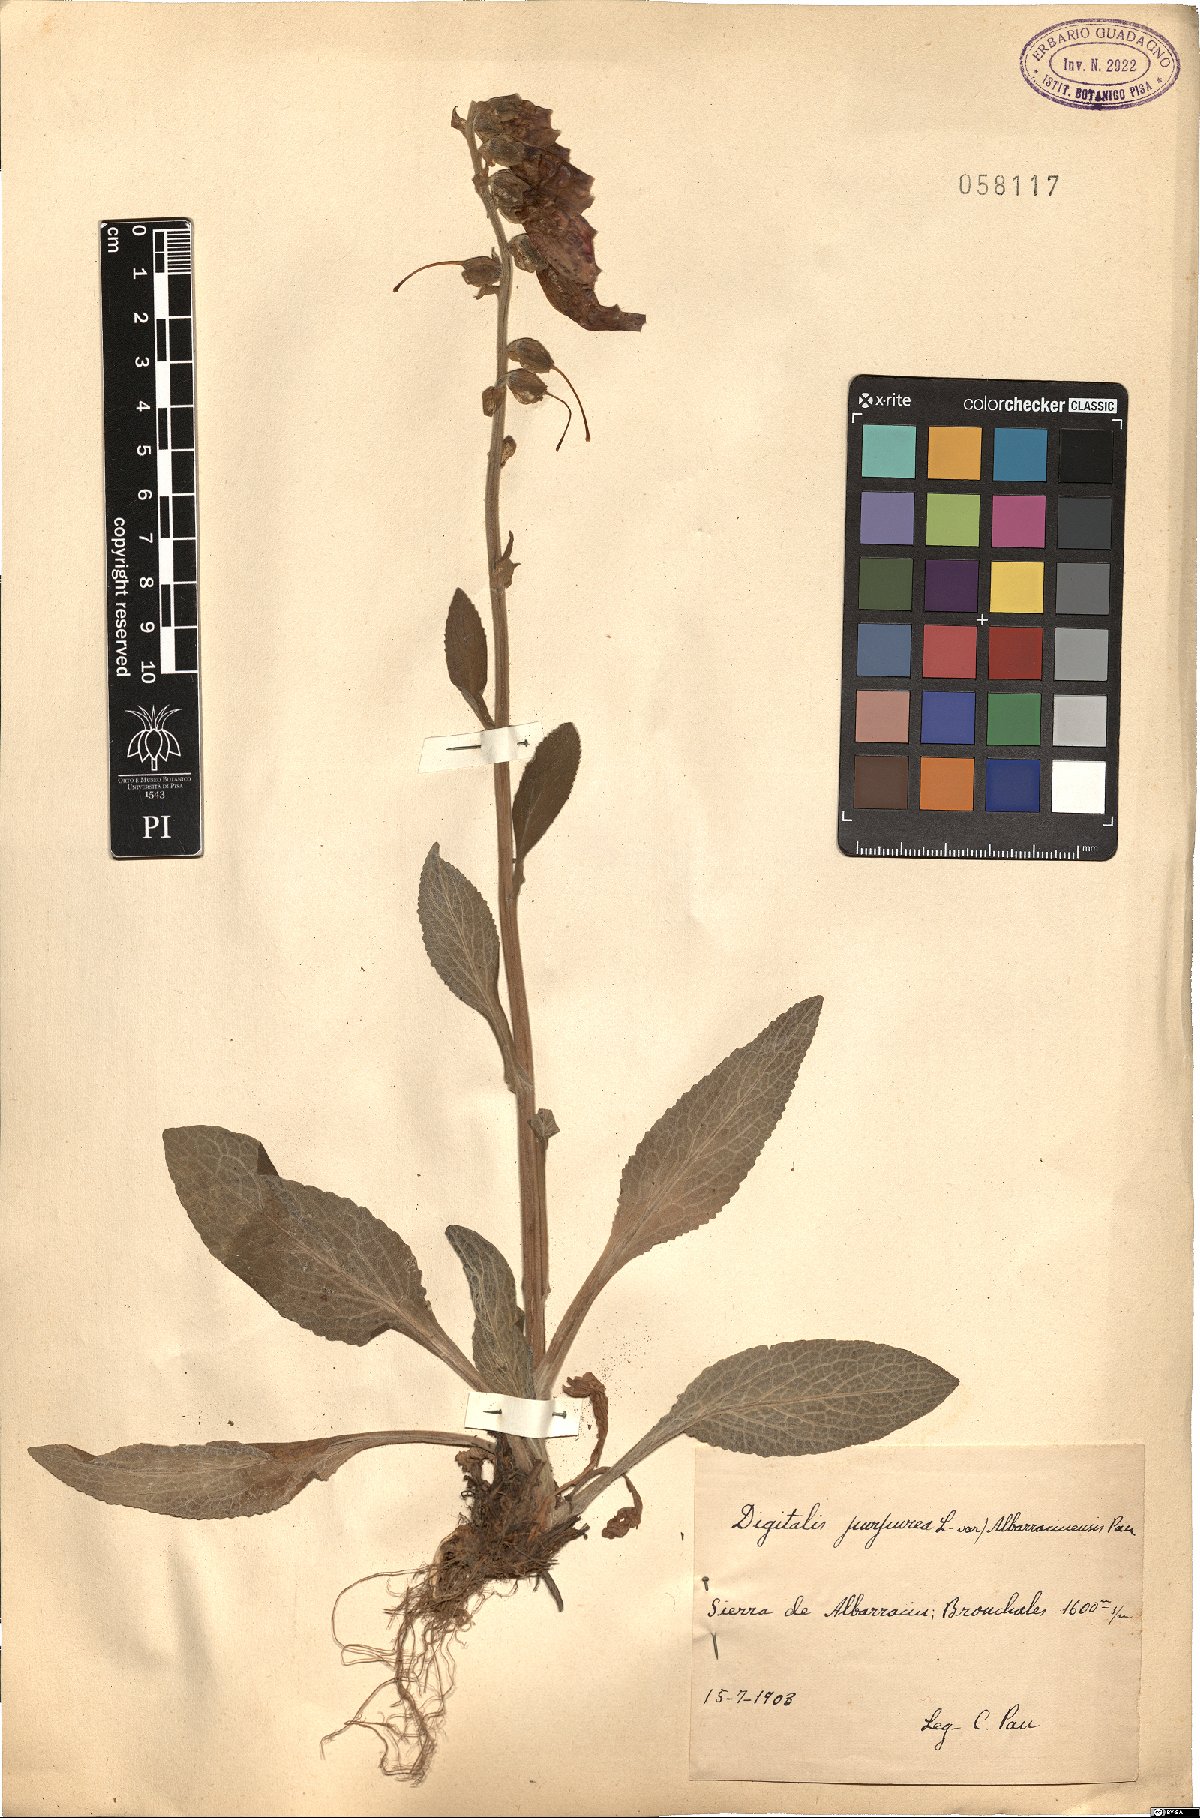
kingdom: Plantae
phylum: Tracheophyta
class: Magnoliopsida
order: Lamiales
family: Plantaginaceae
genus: Digitalis
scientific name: Digitalis purpurea
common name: Foxglove
